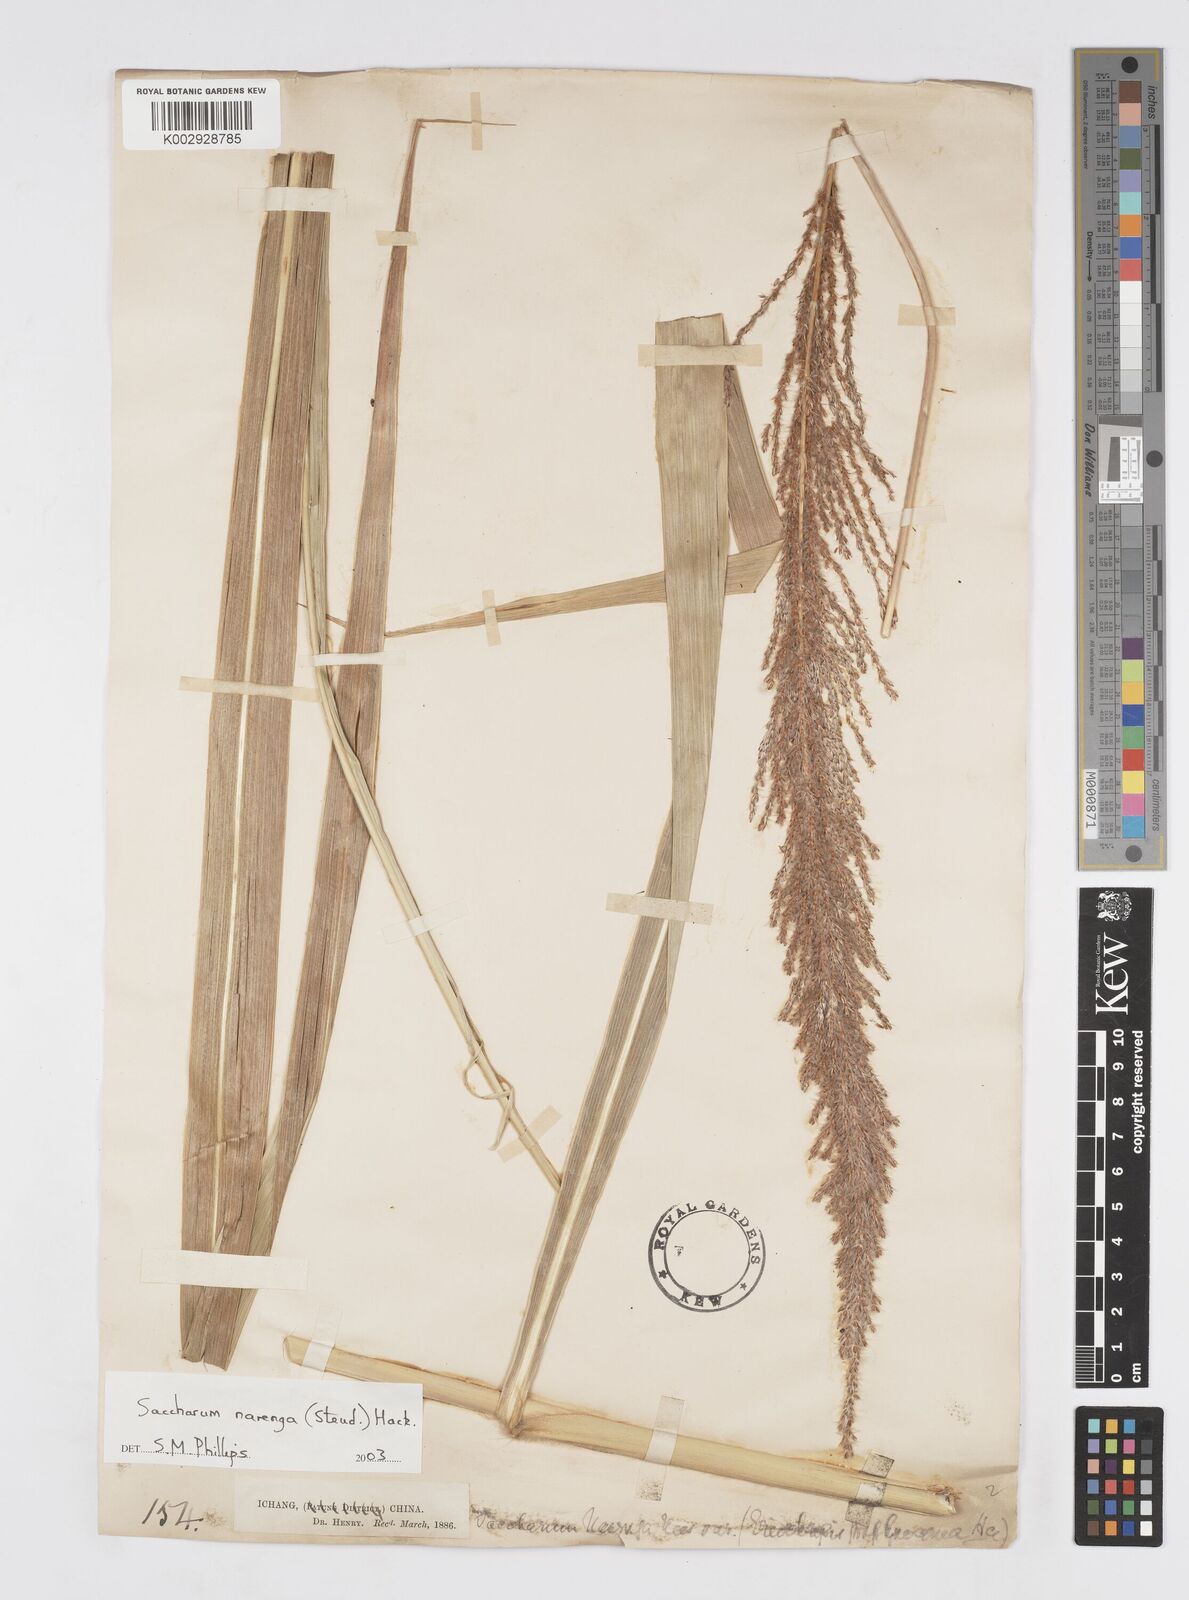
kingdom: Plantae
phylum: Tracheophyta
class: Liliopsida
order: Poales
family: Poaceae
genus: Narenga
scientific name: Narenga porphyrocoma
